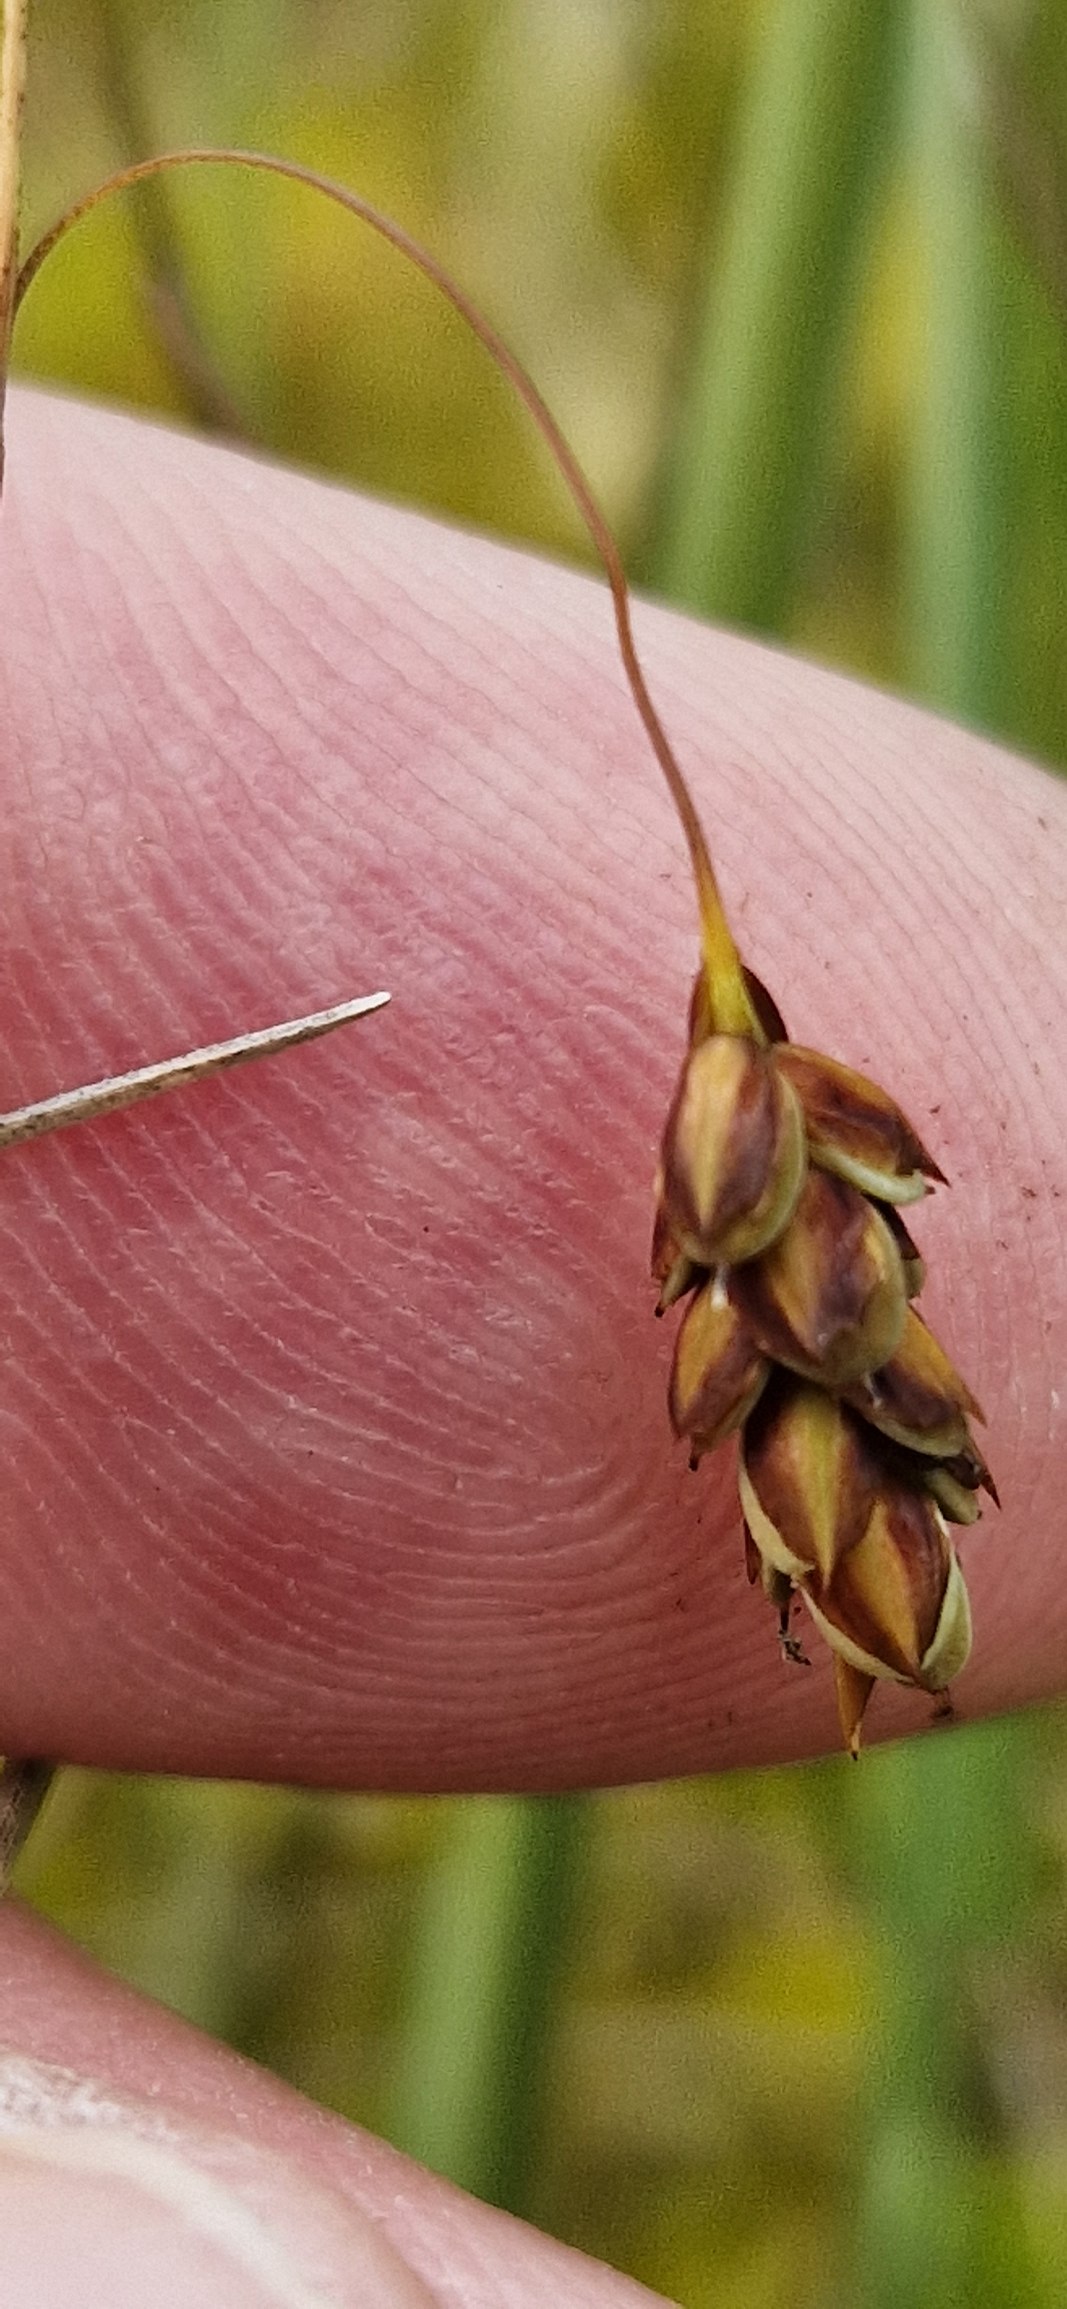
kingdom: Plantae
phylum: Tracheophyta
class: Liliopsida
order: Poales
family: Cyperaceae
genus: Carex
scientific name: Carex limosa
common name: Dynd-star
